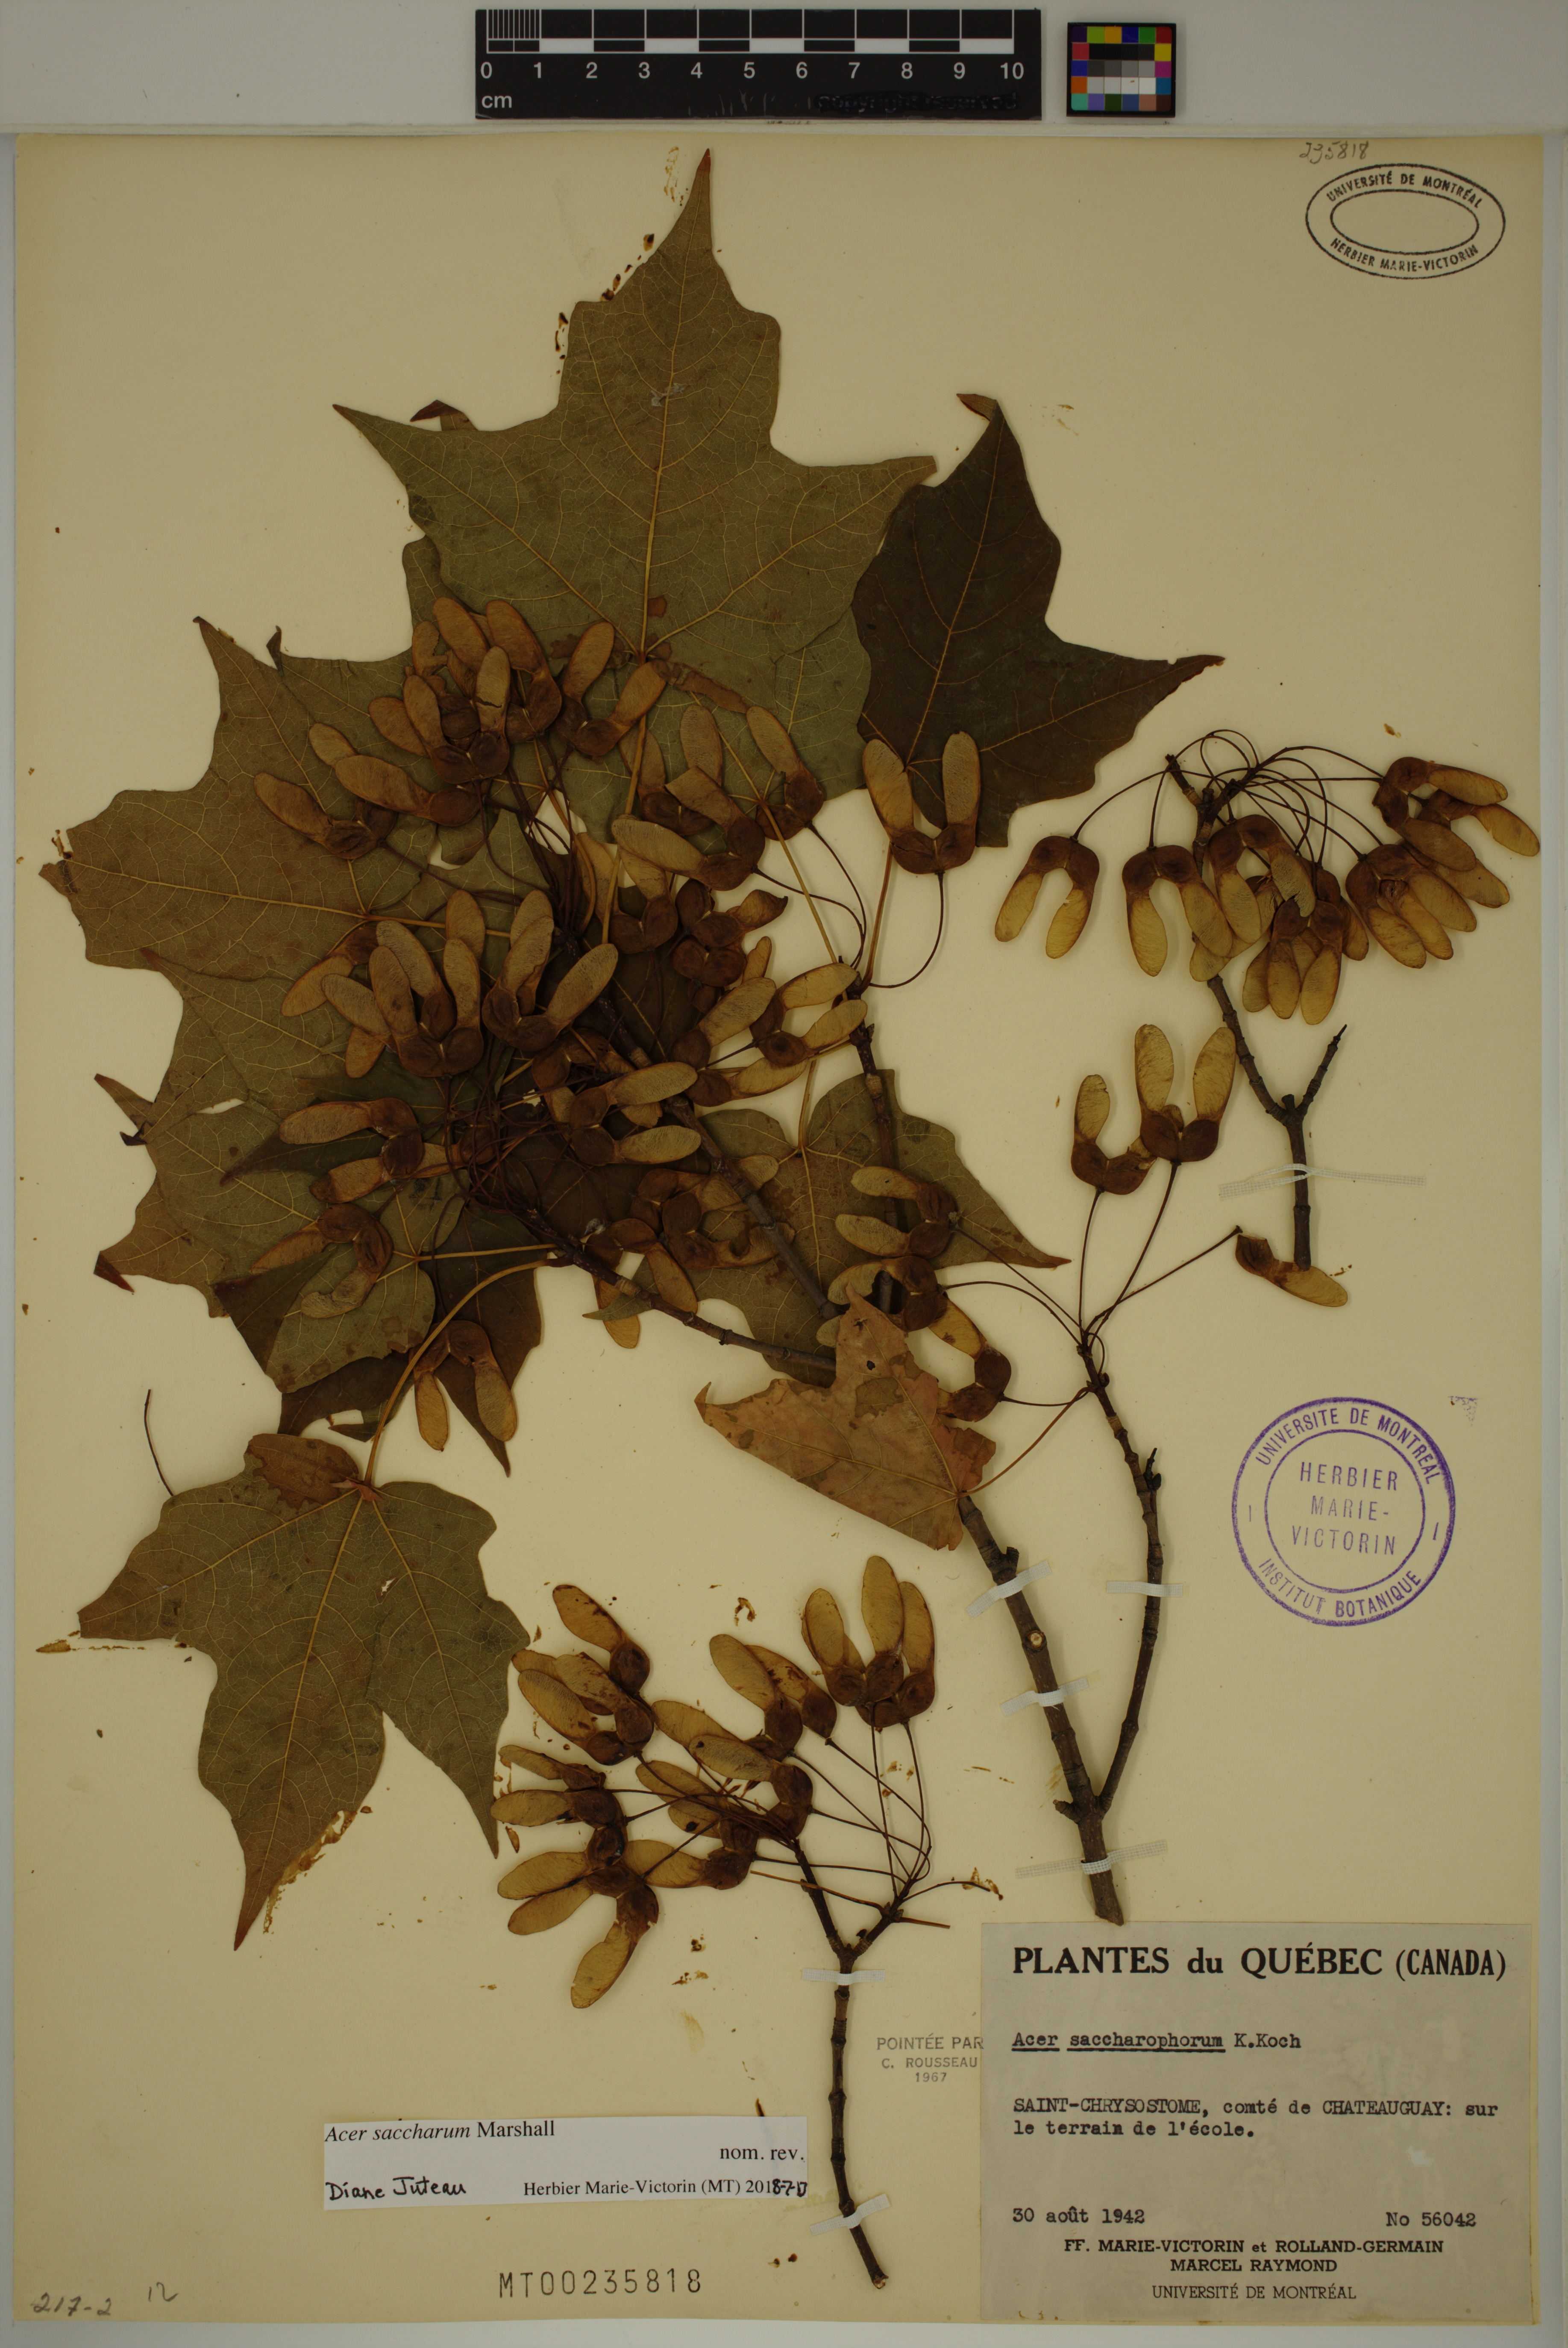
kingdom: Plantae
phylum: Tracheophyta
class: Magnoliopsida
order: Sapindales
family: Sapindaceae
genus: Acer
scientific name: Acer saccharum
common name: Sugar maple
